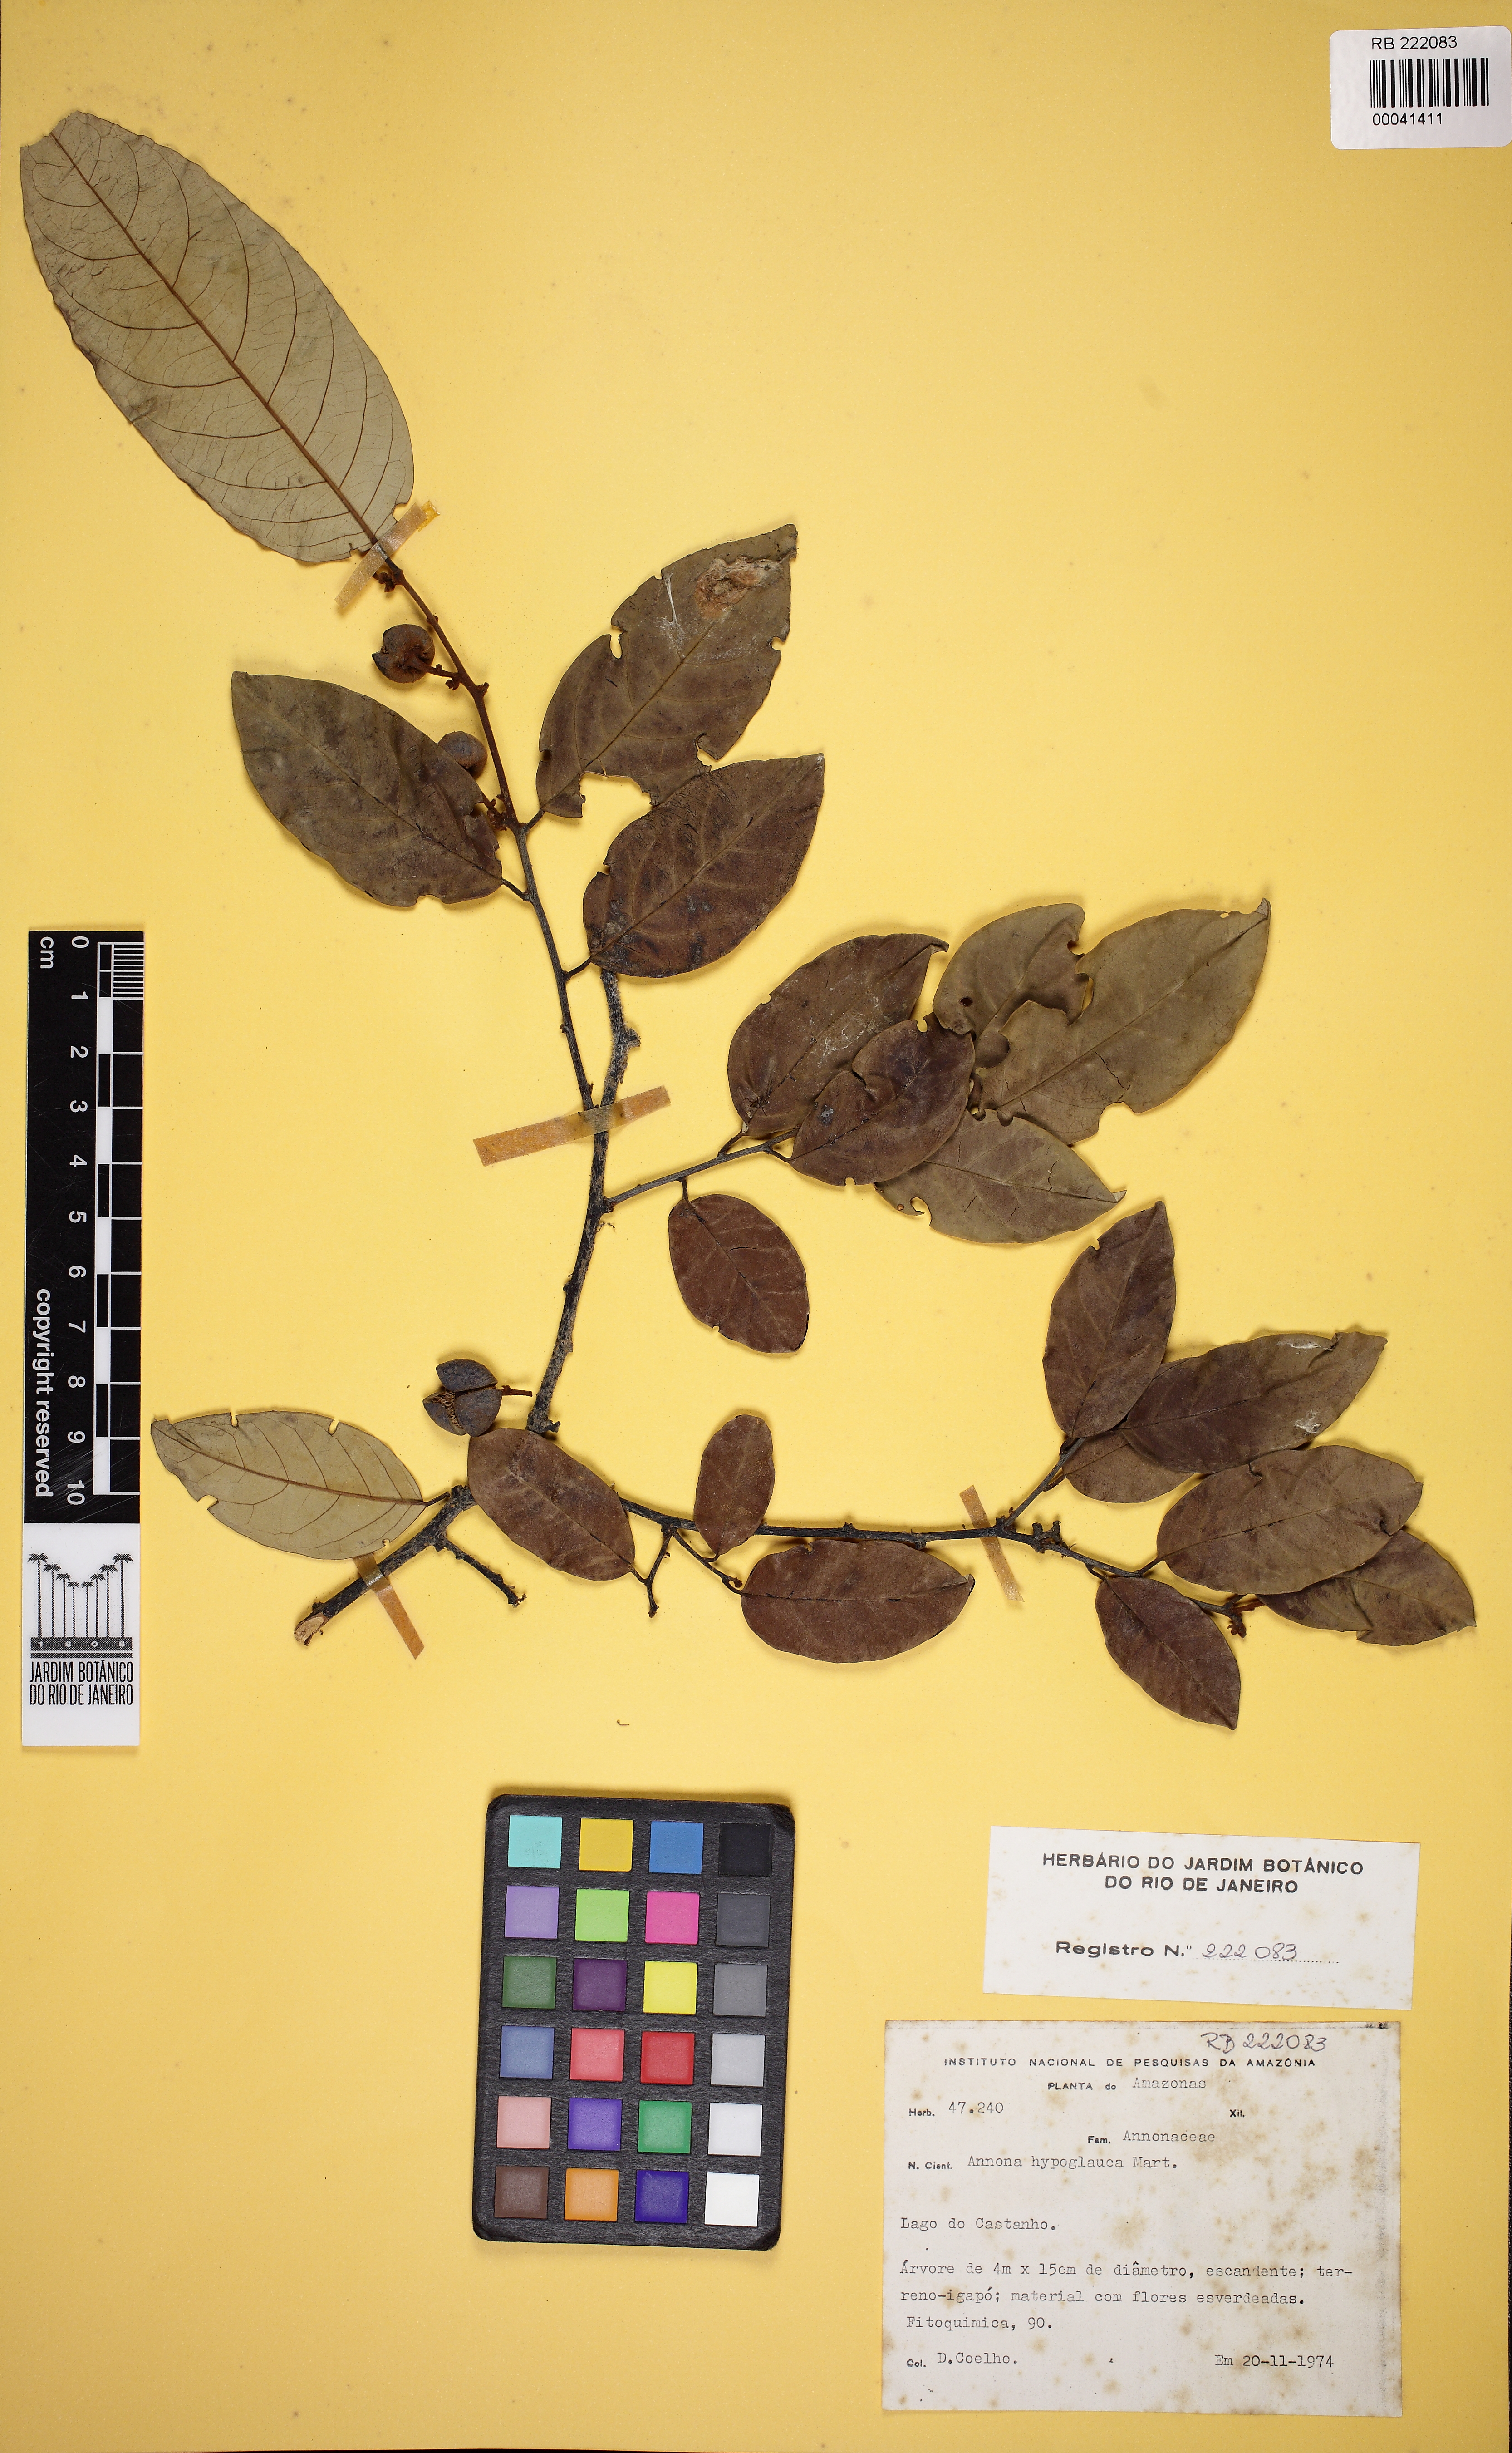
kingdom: Plantae
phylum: Tracheophyta
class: Magnoliopsida
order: Magnoliales
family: Annonaceae
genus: Annona
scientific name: Annona hypoglauca
